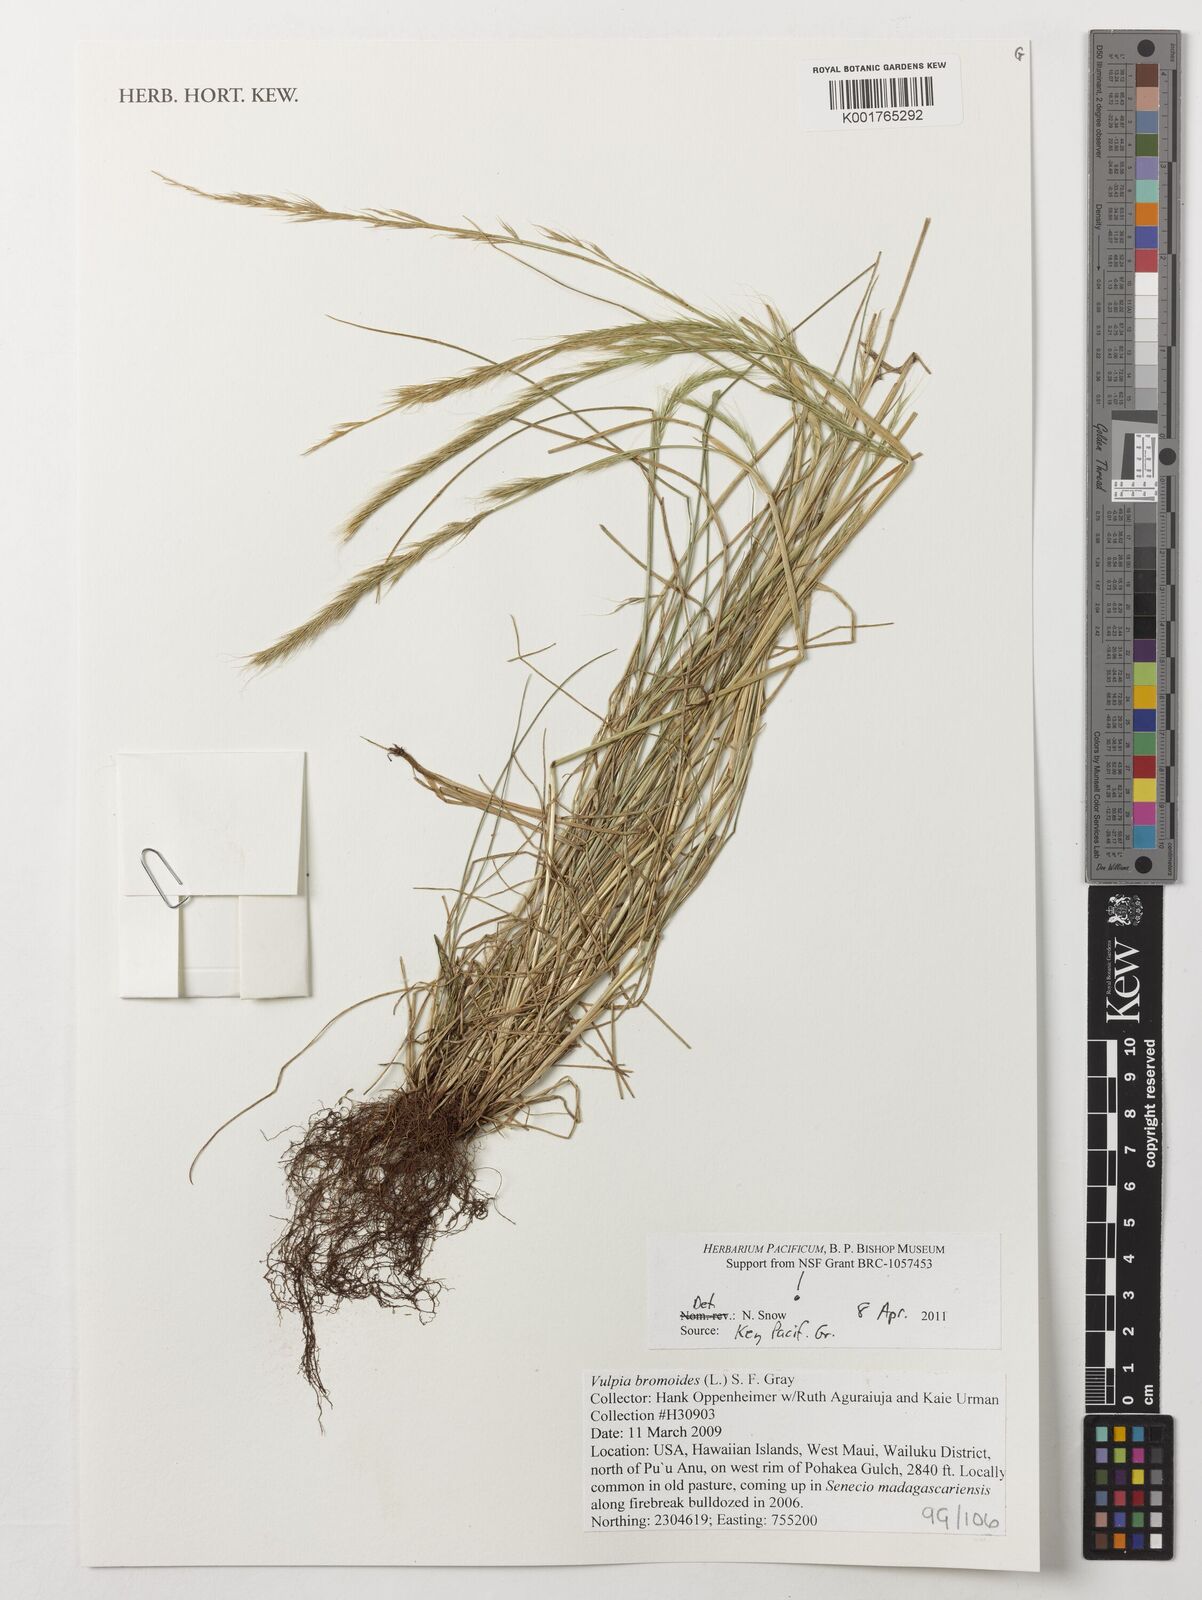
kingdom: Plantae
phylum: Tracheophyta
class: Liliopsida
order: Poales
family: Poaceae
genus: Festuca
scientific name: Festuca bromoides
